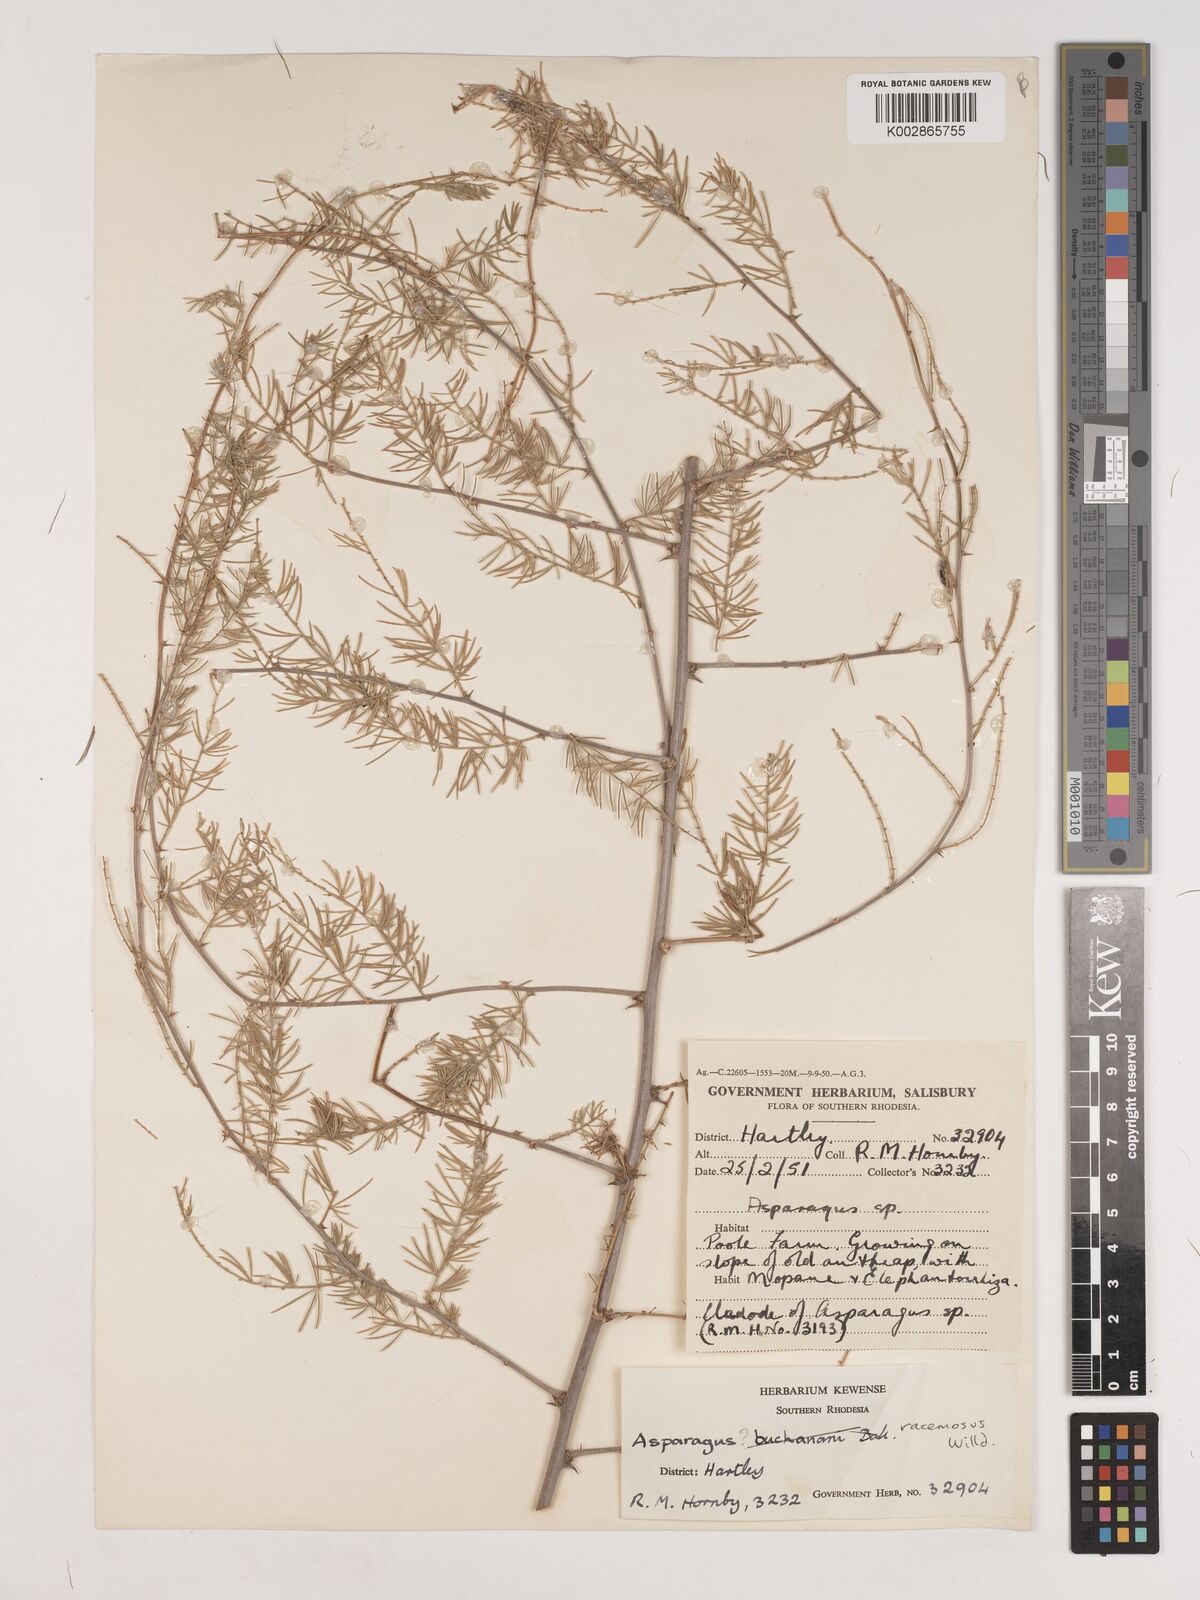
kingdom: Plantae
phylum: Tracheophyta
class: Liliopsida
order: Asparagales
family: Asparagaceae
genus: Asparagus
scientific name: Asparagus racemosus
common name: Asparagus-fern
